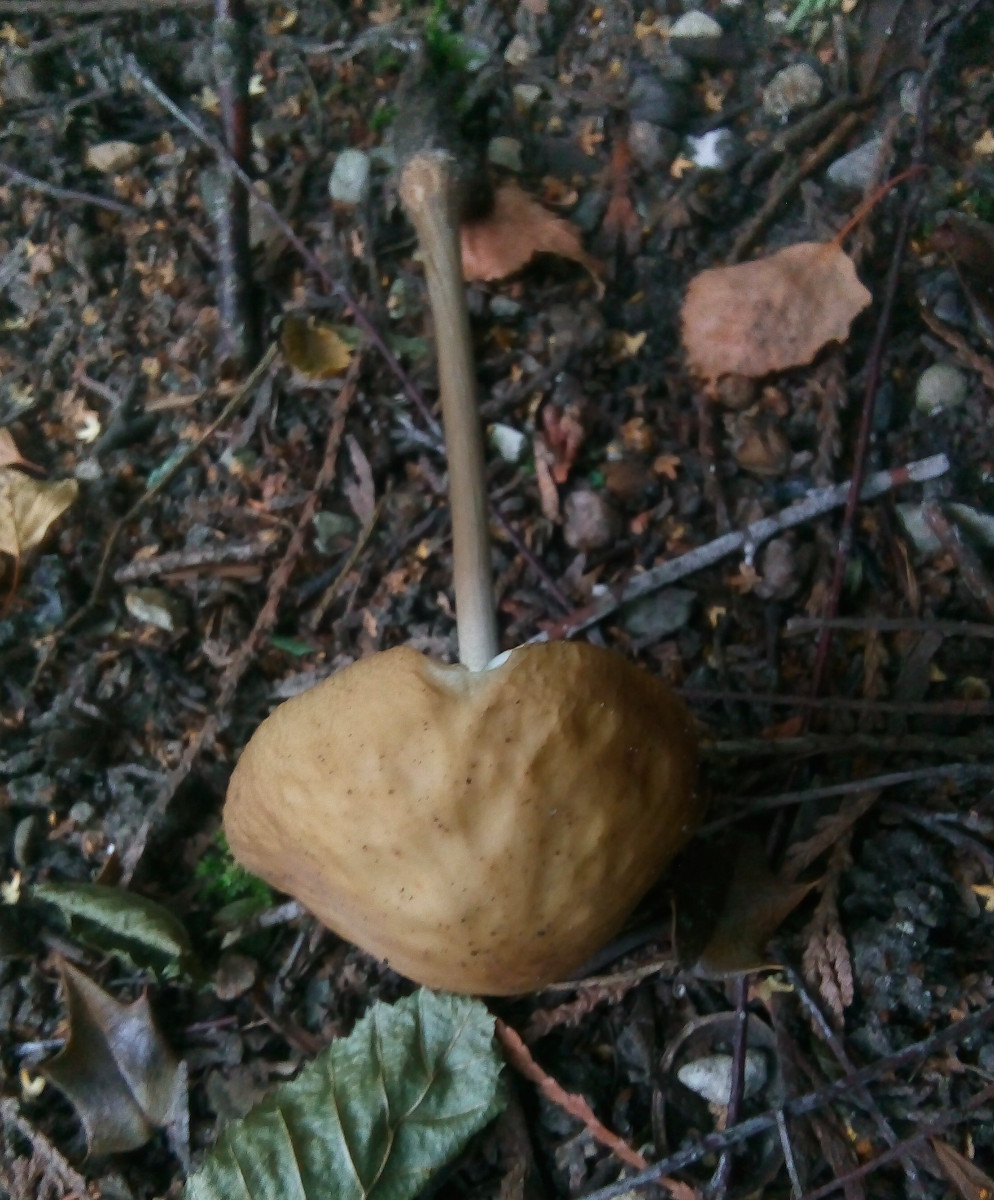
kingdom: Fungi
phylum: Basidiomycota
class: Agaricomycetes
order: Agaricales
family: Physalacriaceae
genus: Hymenopellis
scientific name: Hymenopellis radicata
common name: almindelig pælerodshat
